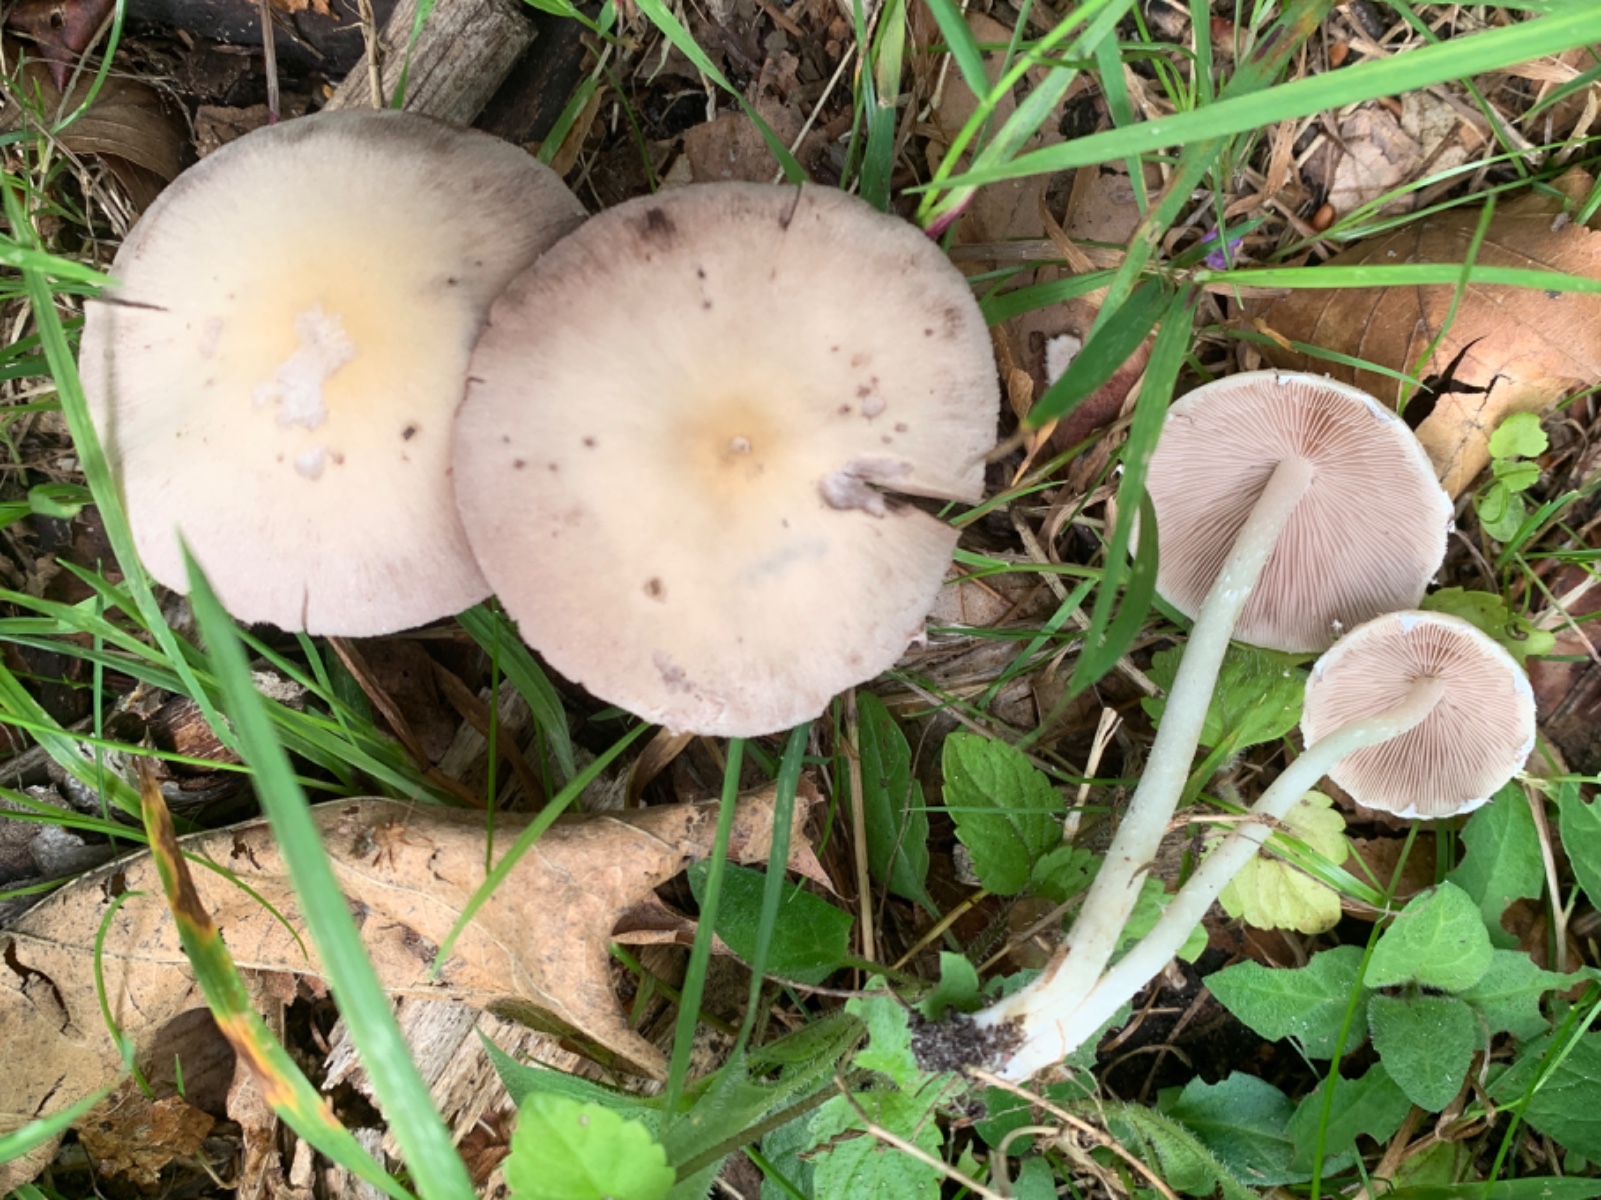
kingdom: Fungi
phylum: Basidiomycota
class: Agaricomycetes
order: Agaricales
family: Psathyrellaceae
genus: Candolleomyces
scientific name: Candolleomyces candolleanus
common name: Candolles mørkhat
